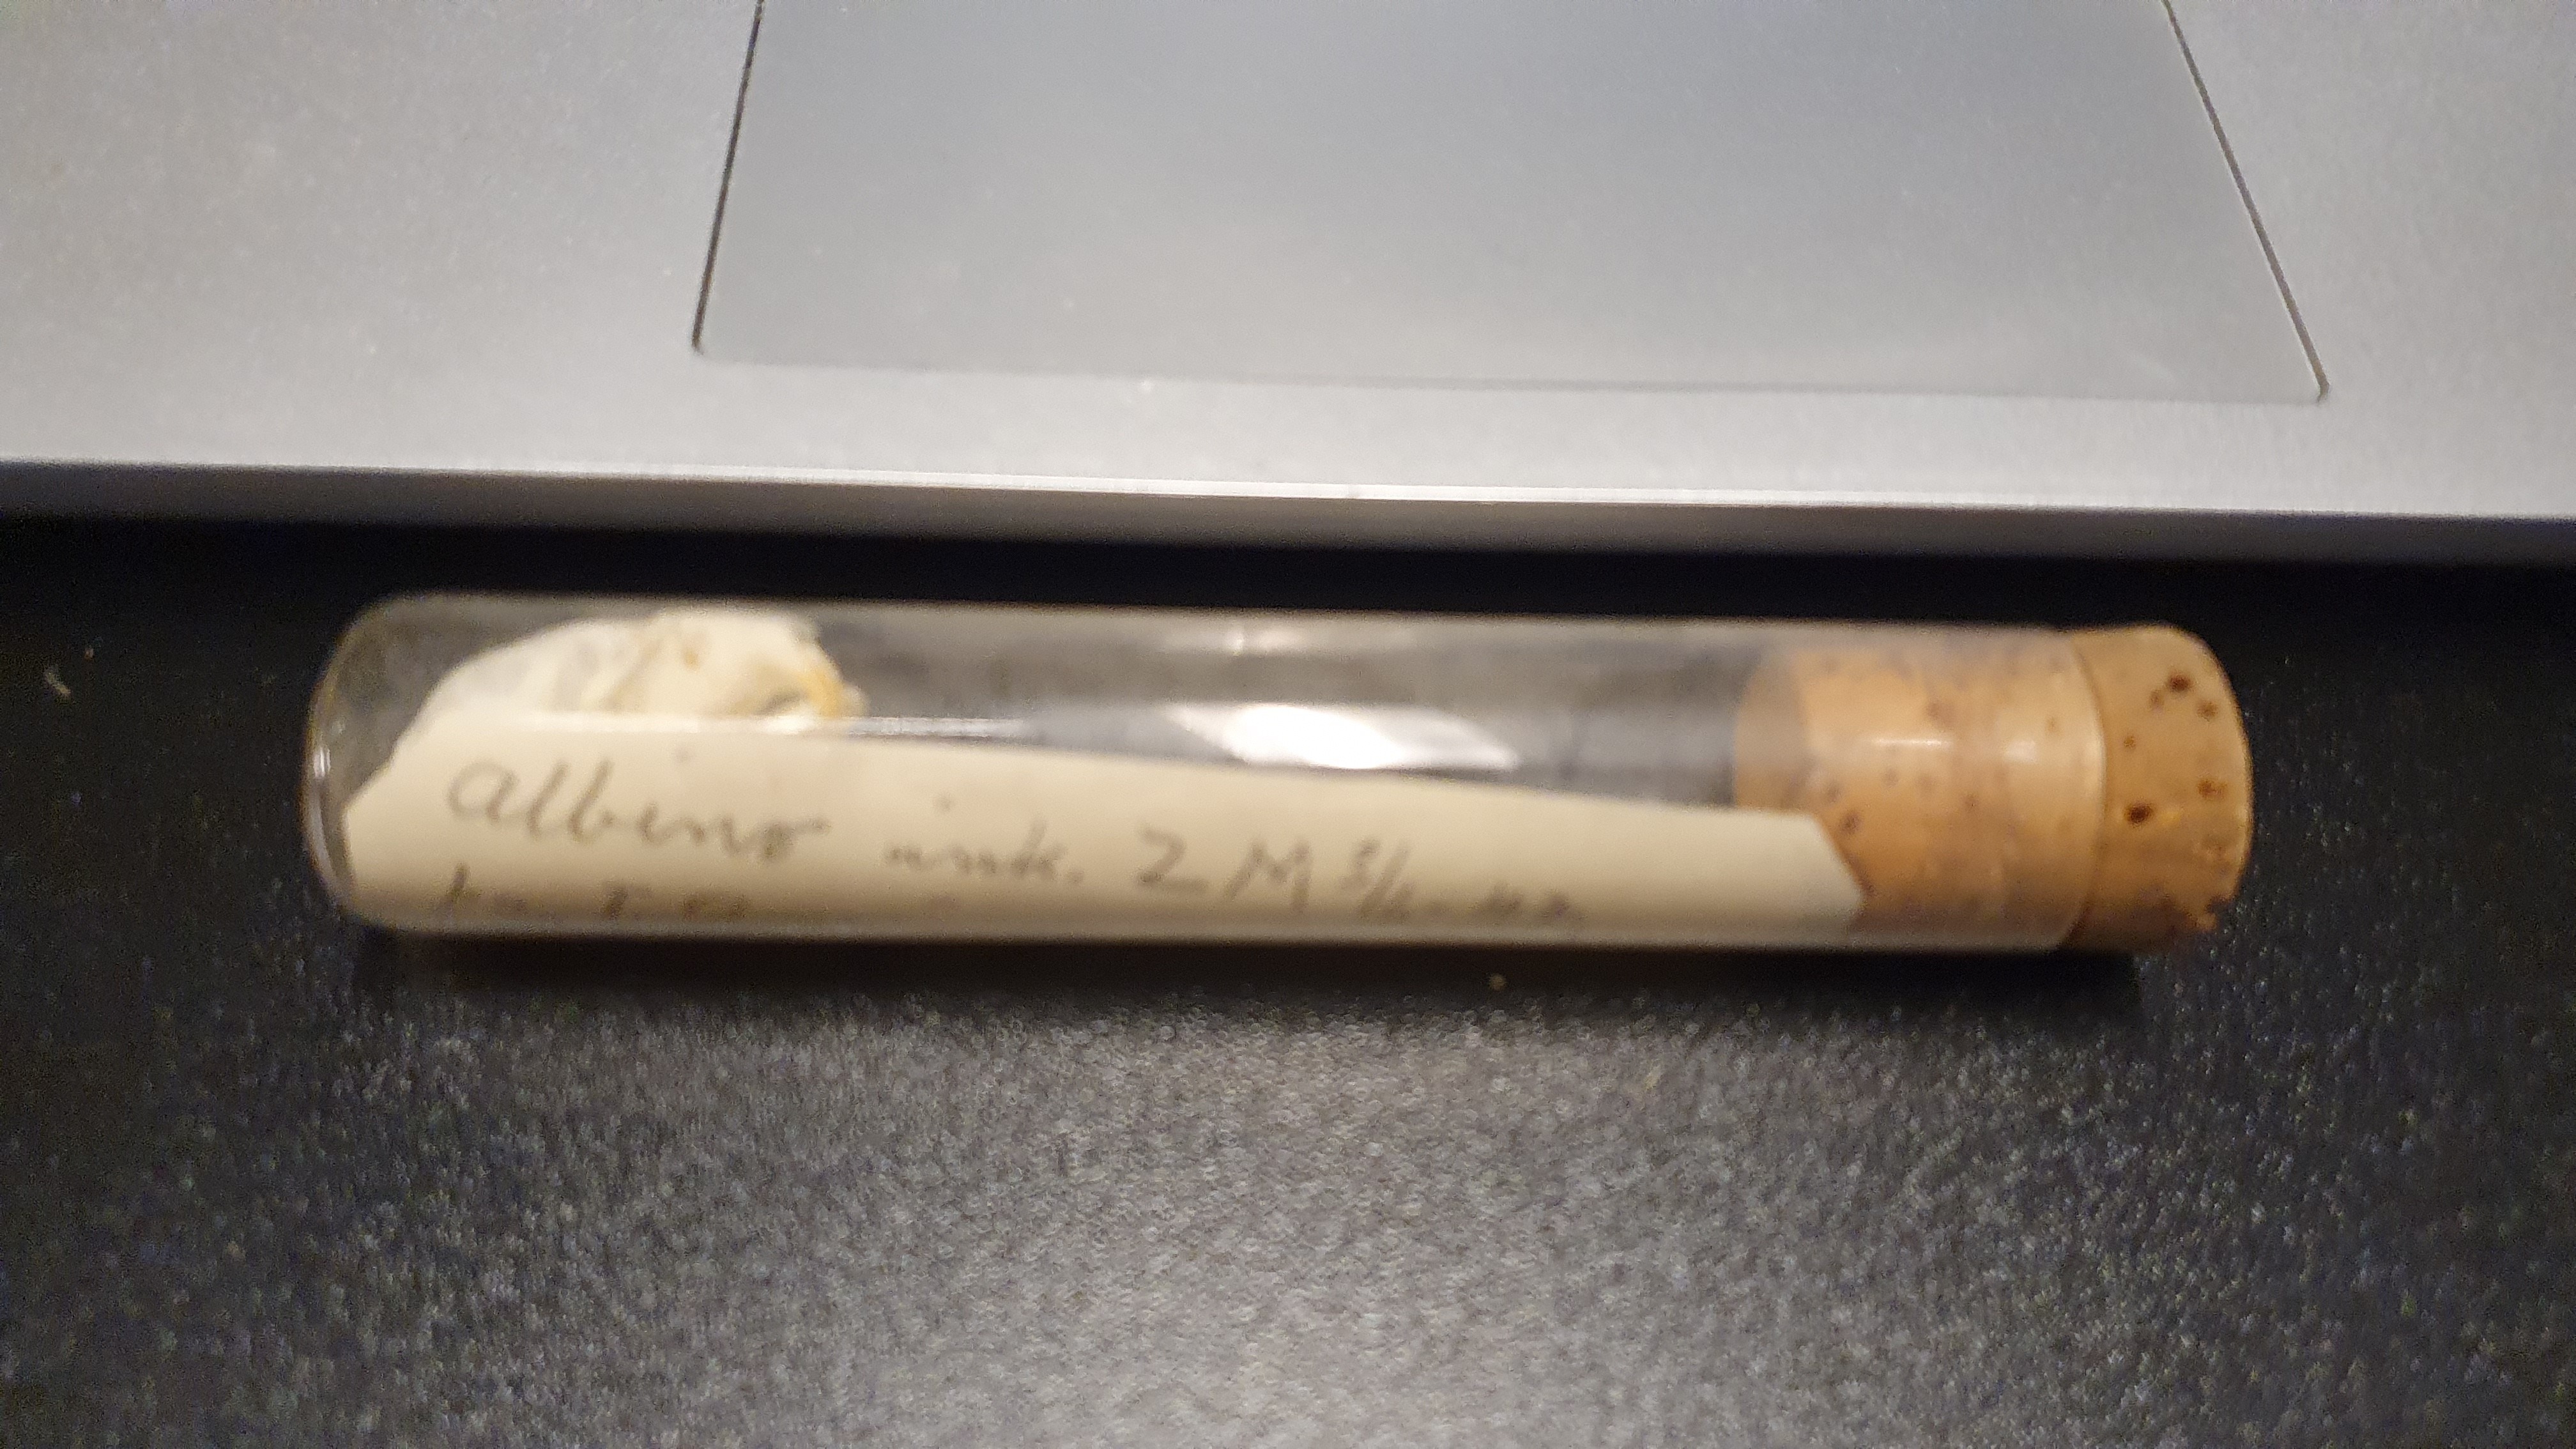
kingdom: Animalia
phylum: Chordata
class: Mammalia
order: Rodentia
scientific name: Rodentia
